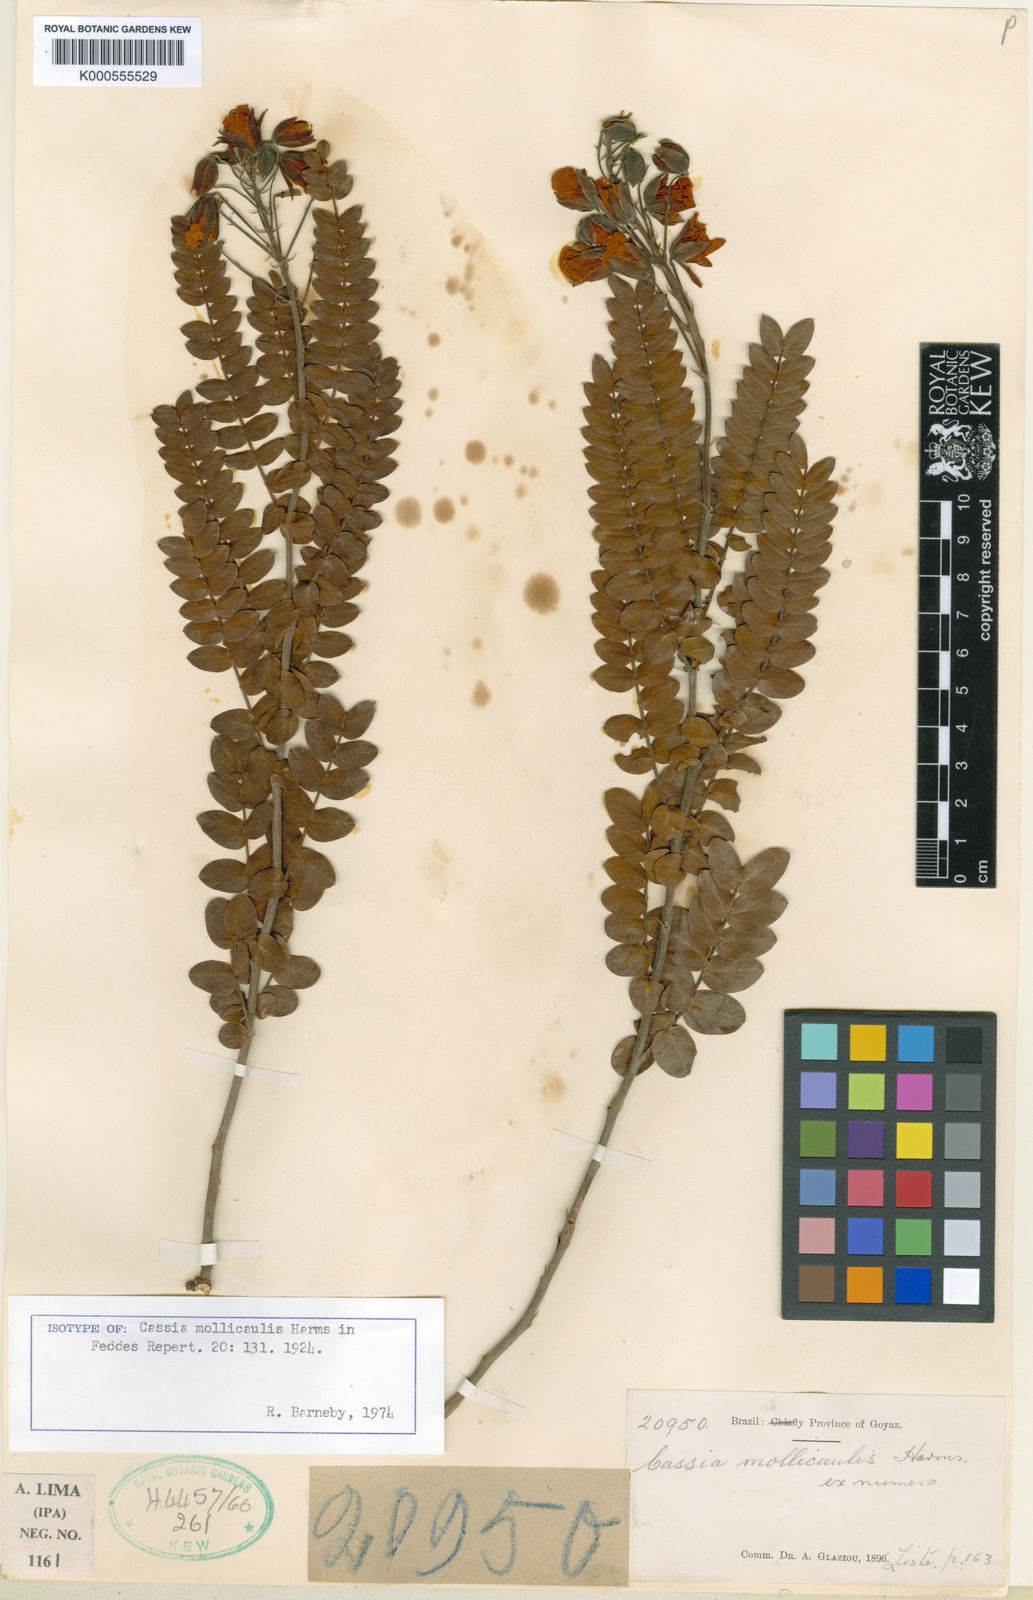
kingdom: Plantae
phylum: Tracheophyta
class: Magnoliopsida
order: Fabales
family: Fabaceae
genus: Chamaecrista
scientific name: Chamaecrista mollicaulis
